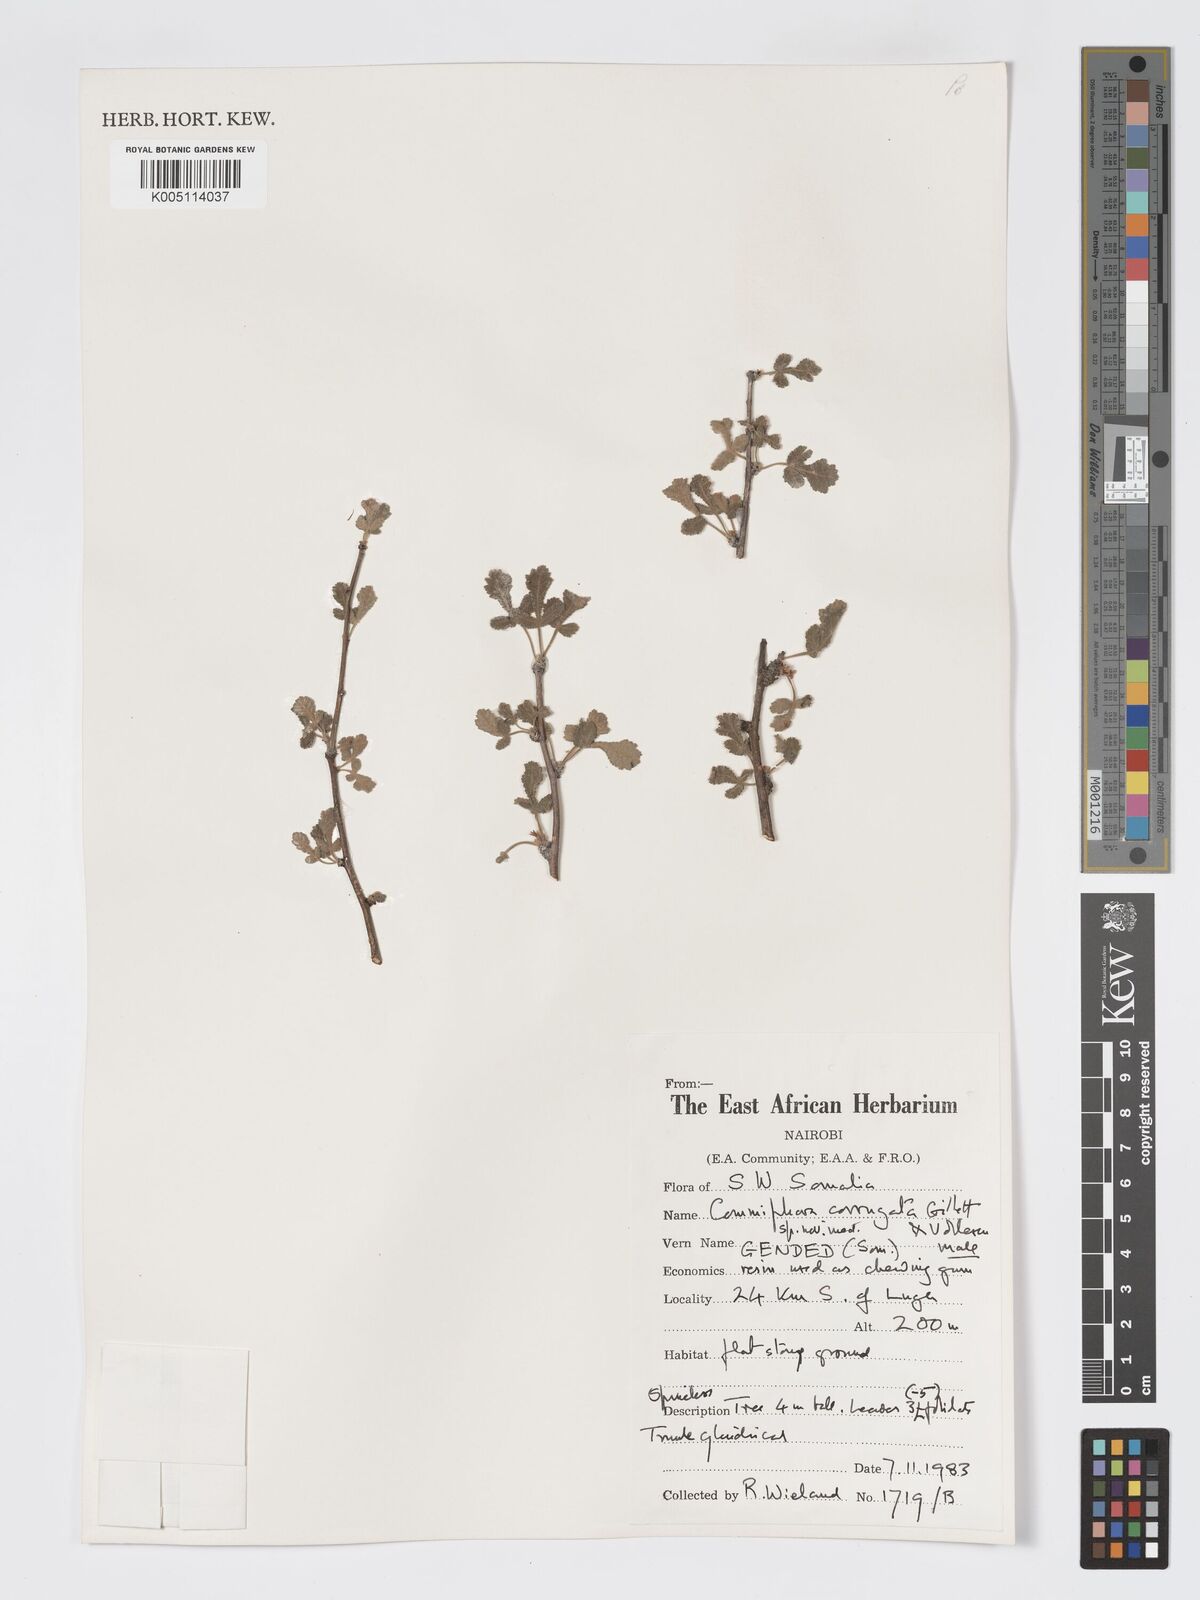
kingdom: Plantae
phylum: Tracheophyta
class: Magnoliopsida
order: Sapindales
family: Burseraceae
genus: Commiphora
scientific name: Commiphora corrugata
